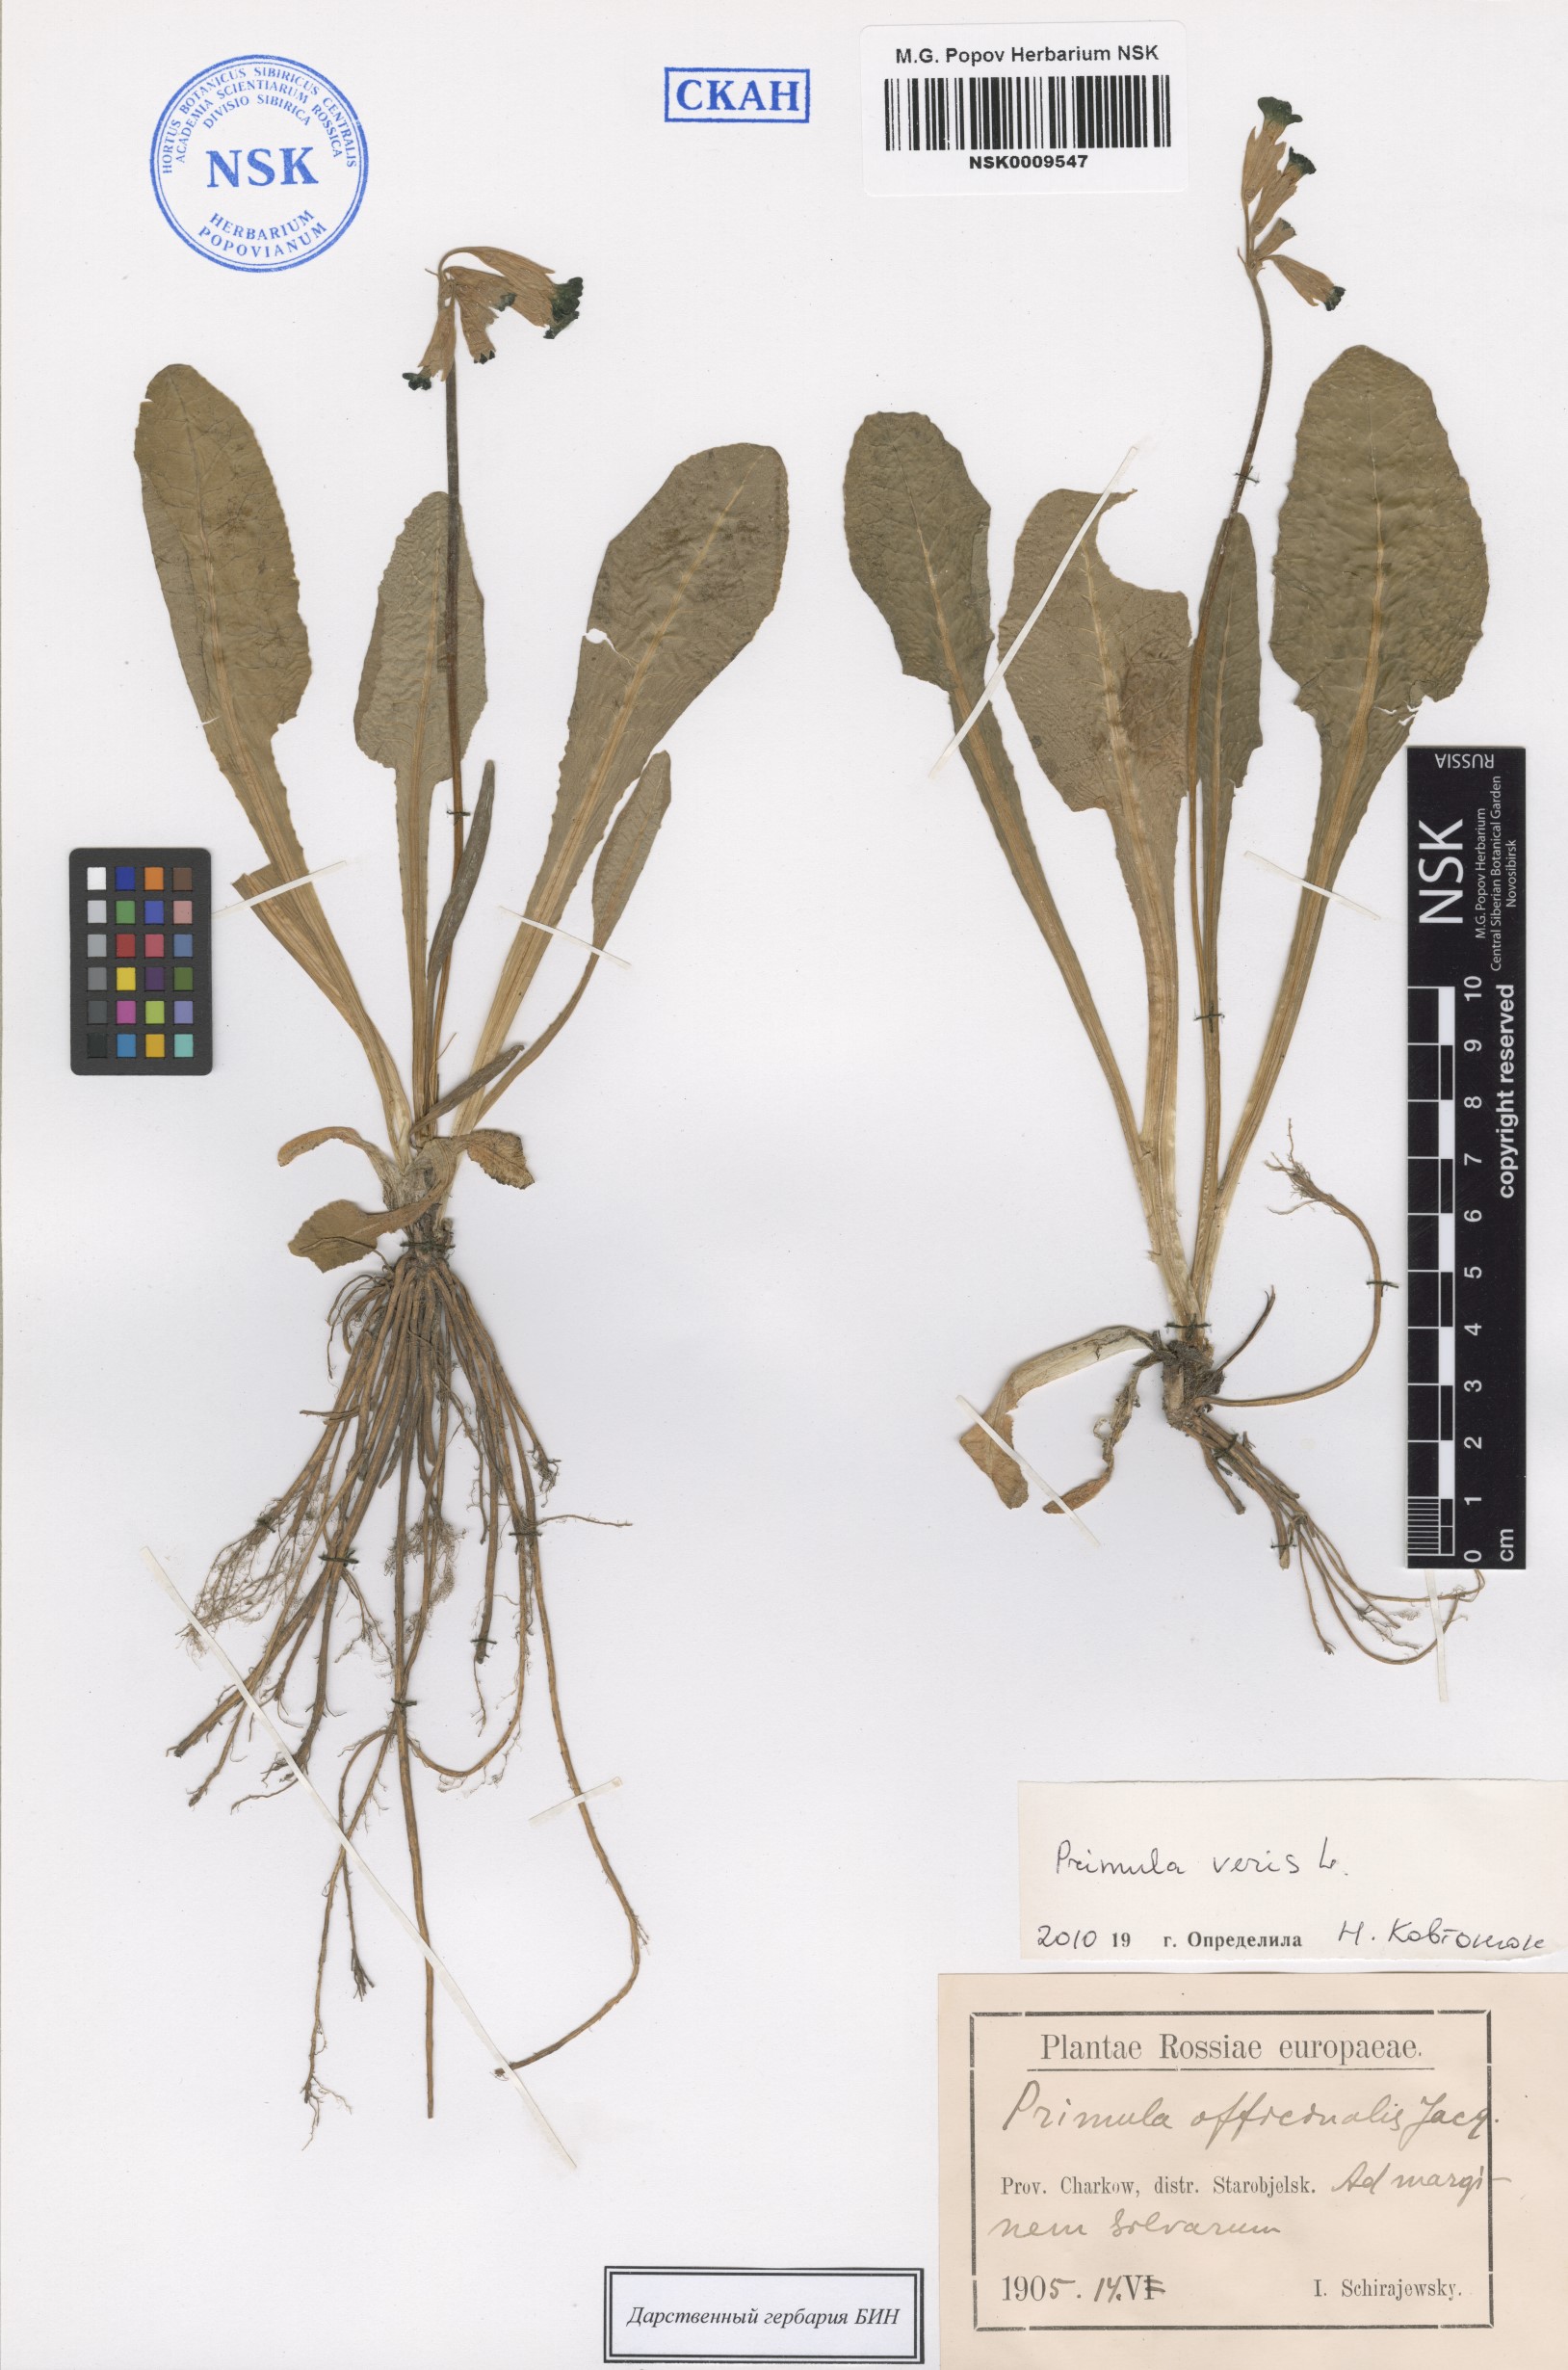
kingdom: Plantae
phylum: Tracheophyta
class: Magnoliopsida
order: Ericales
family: Primulaceae
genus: Primula
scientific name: Primula veris
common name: Cowslip
